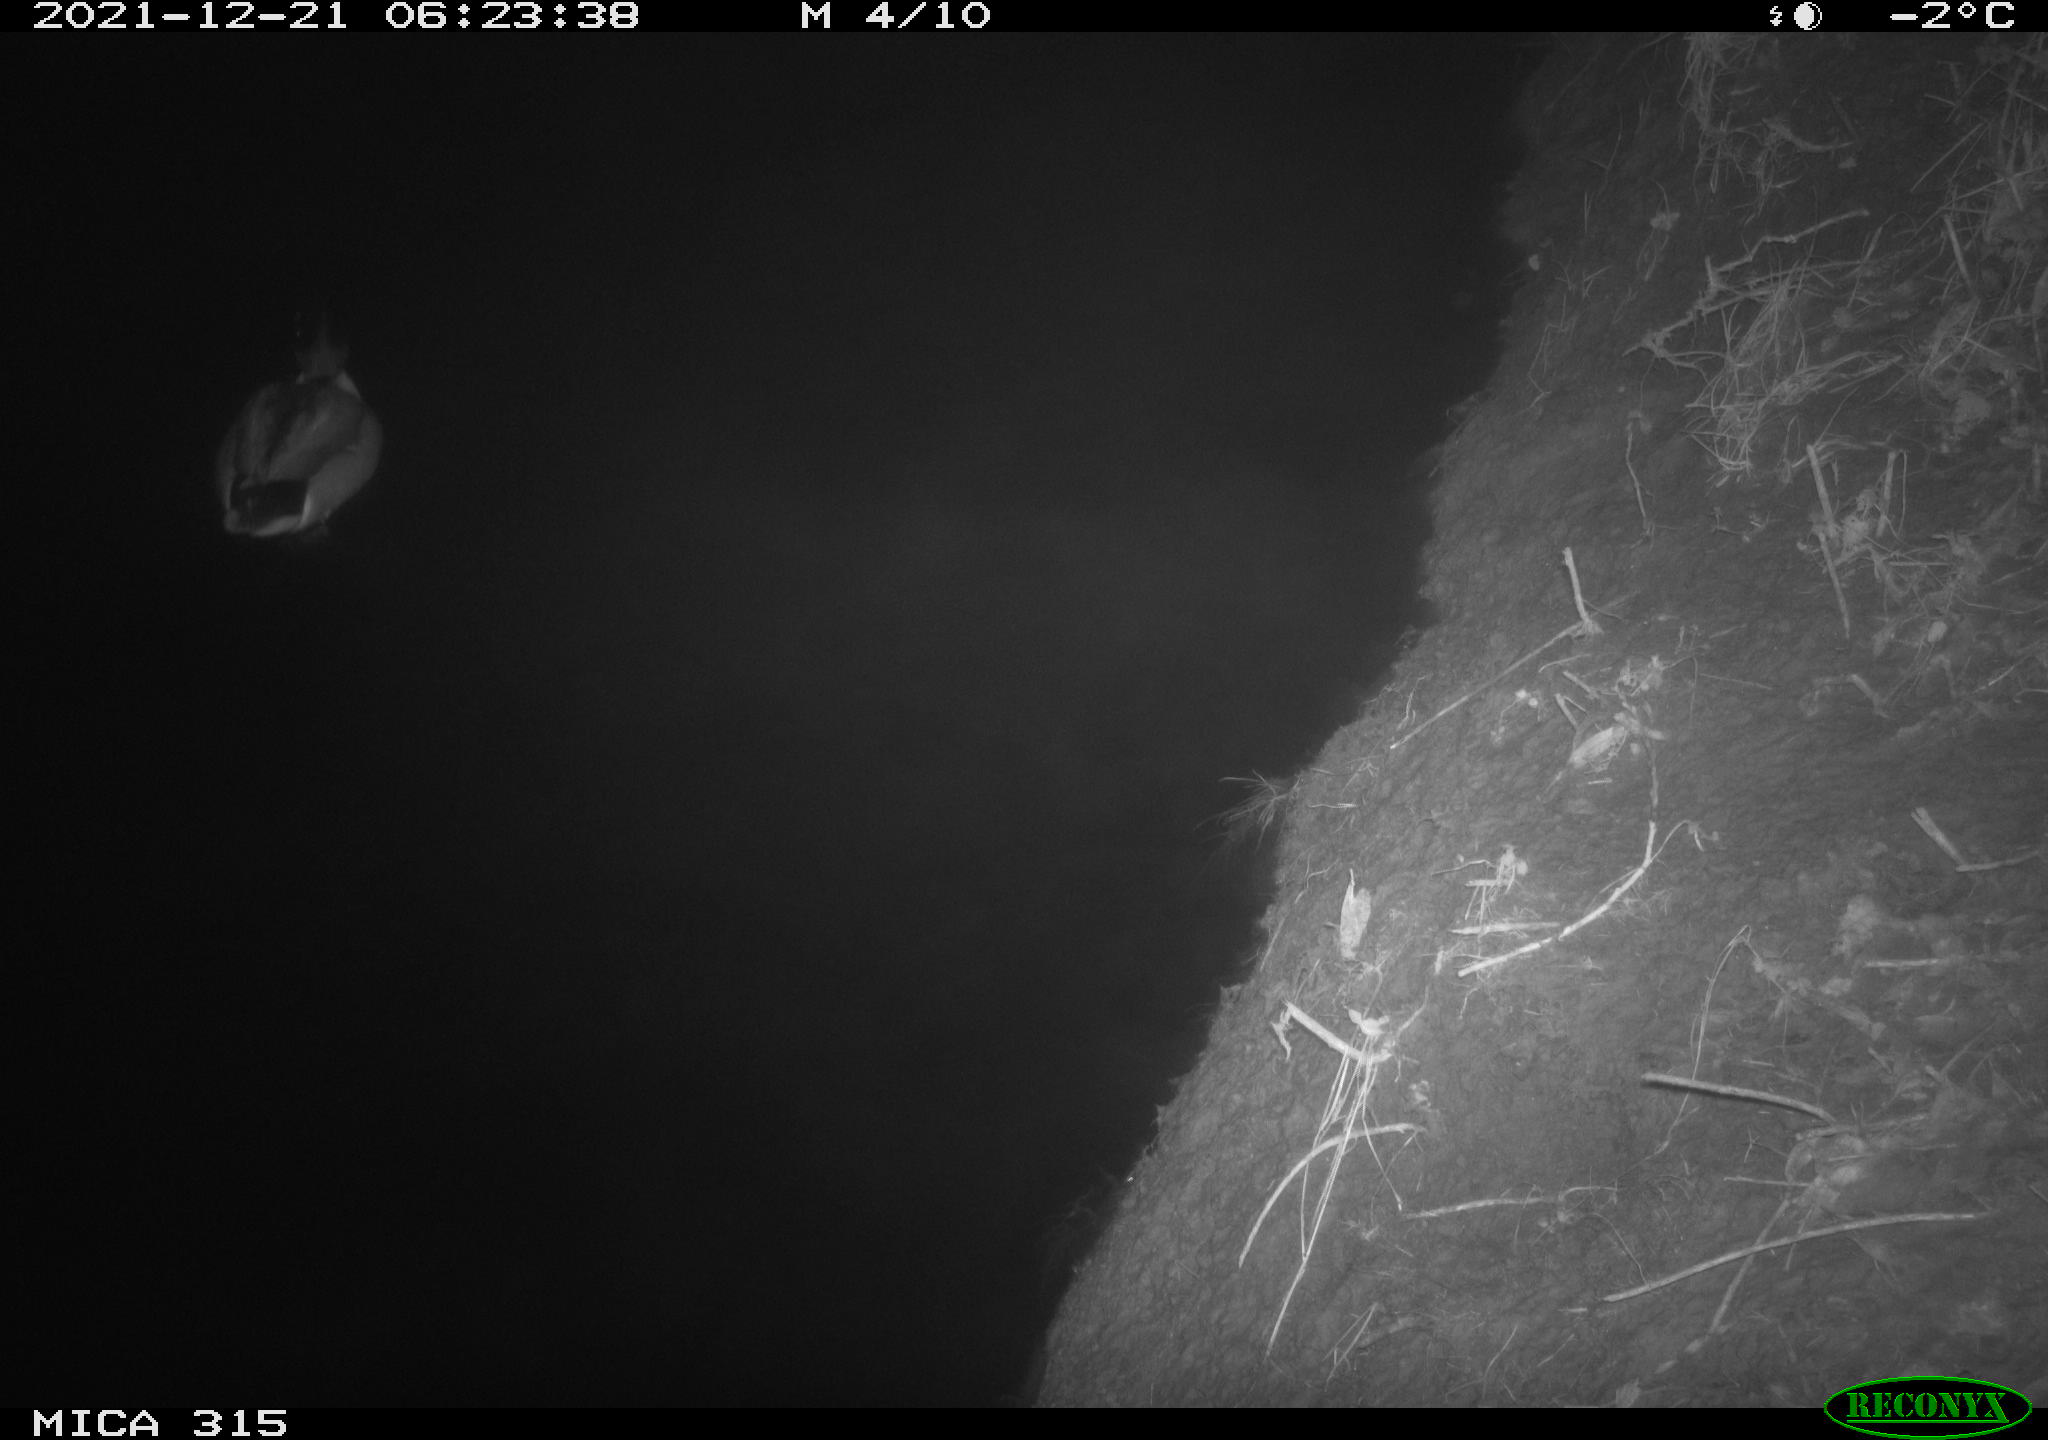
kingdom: Animalia
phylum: Chordata
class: Aves
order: Anseriformes
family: Anatidae
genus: Anas
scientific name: Anas
